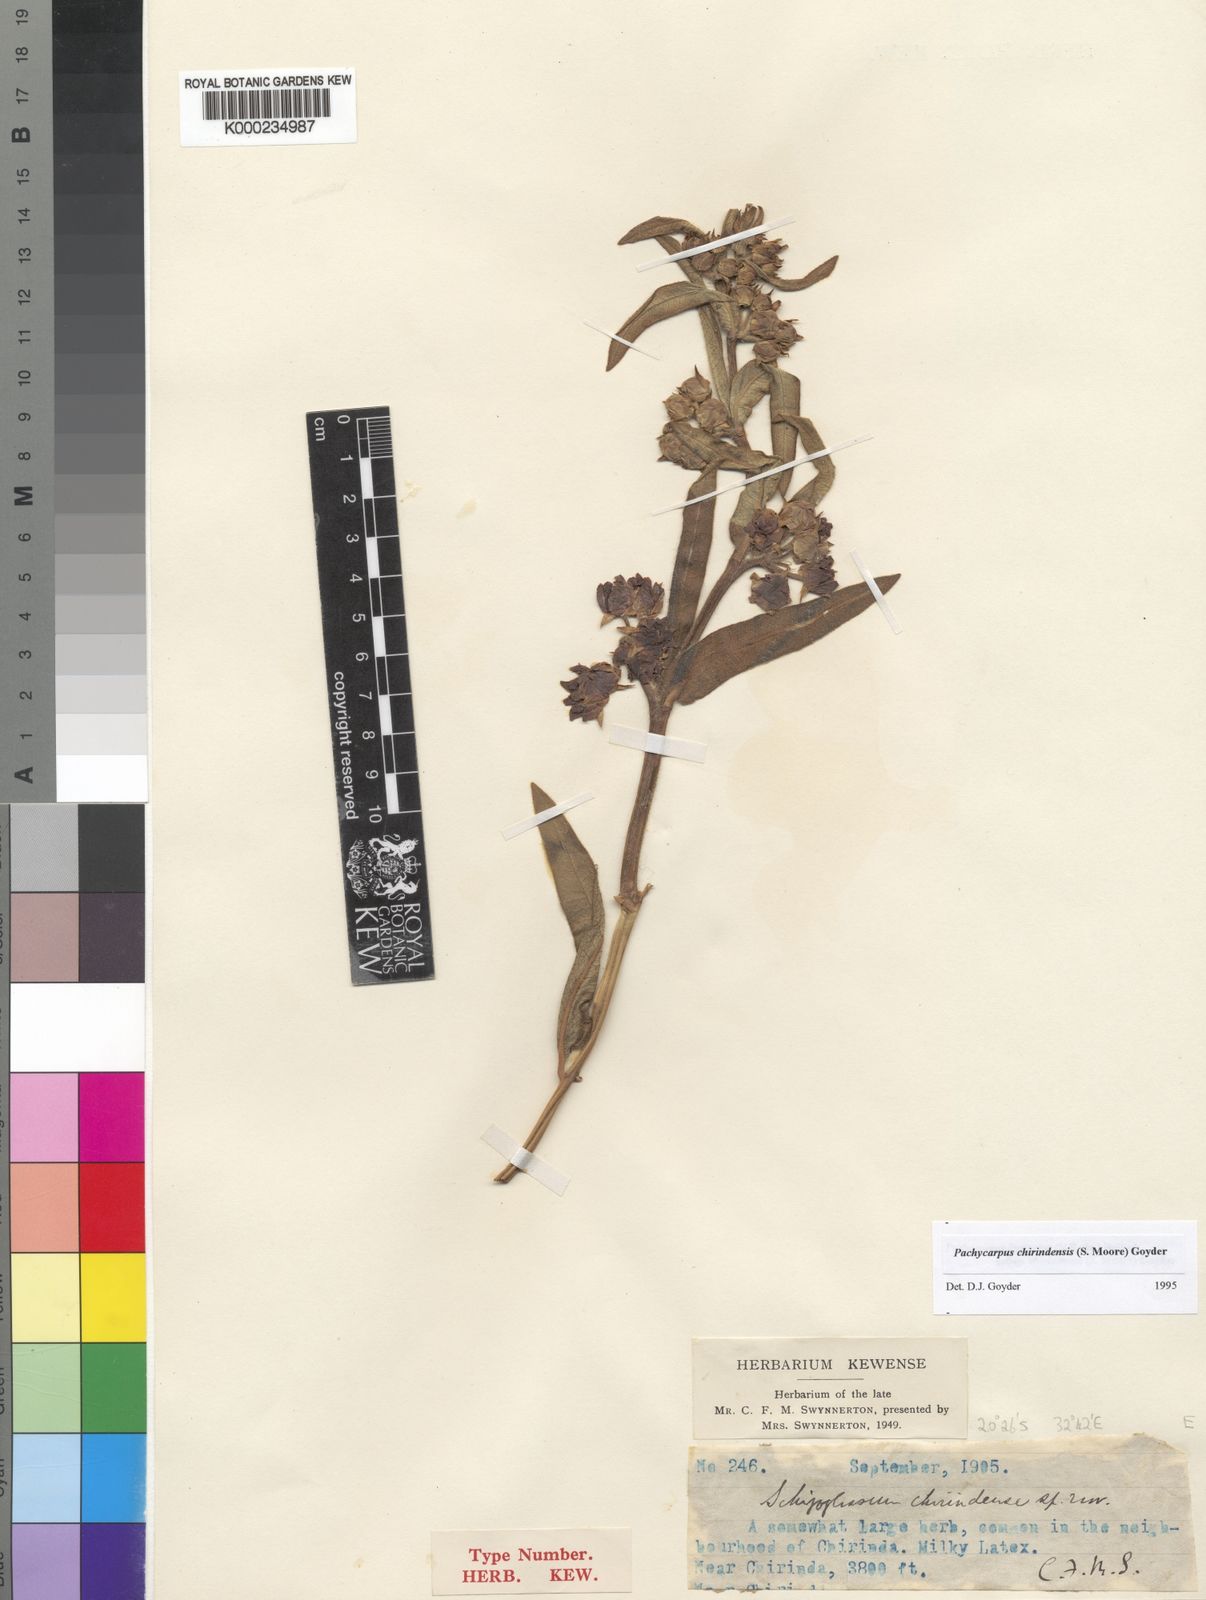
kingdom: Plantae
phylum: Tracheophyta
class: Magnoliopsida
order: Gentianales
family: Apocynaceae
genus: Pachycarpus
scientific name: Pachycarpus chirindensis
